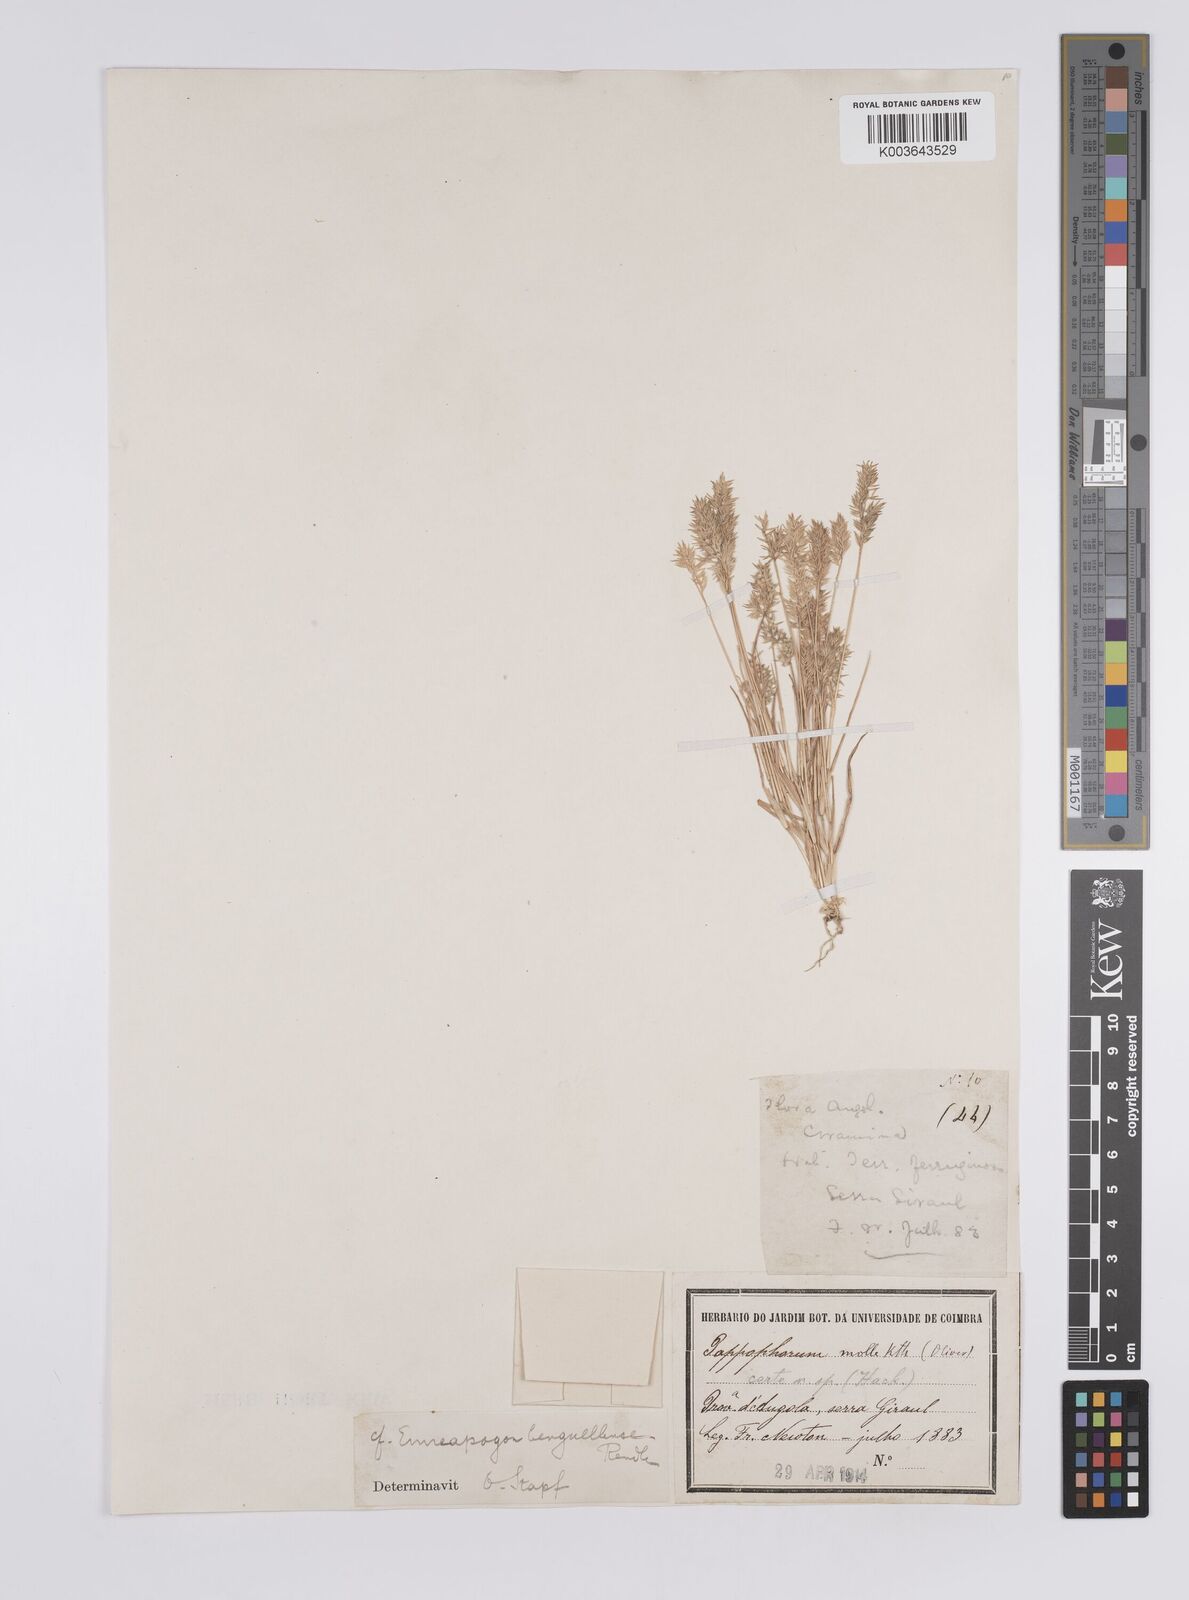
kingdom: Plantae
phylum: Tracheophyta
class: Liliopsida
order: Poales
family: Poaceae
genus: Enneapogon
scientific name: Enneapogon scaber
